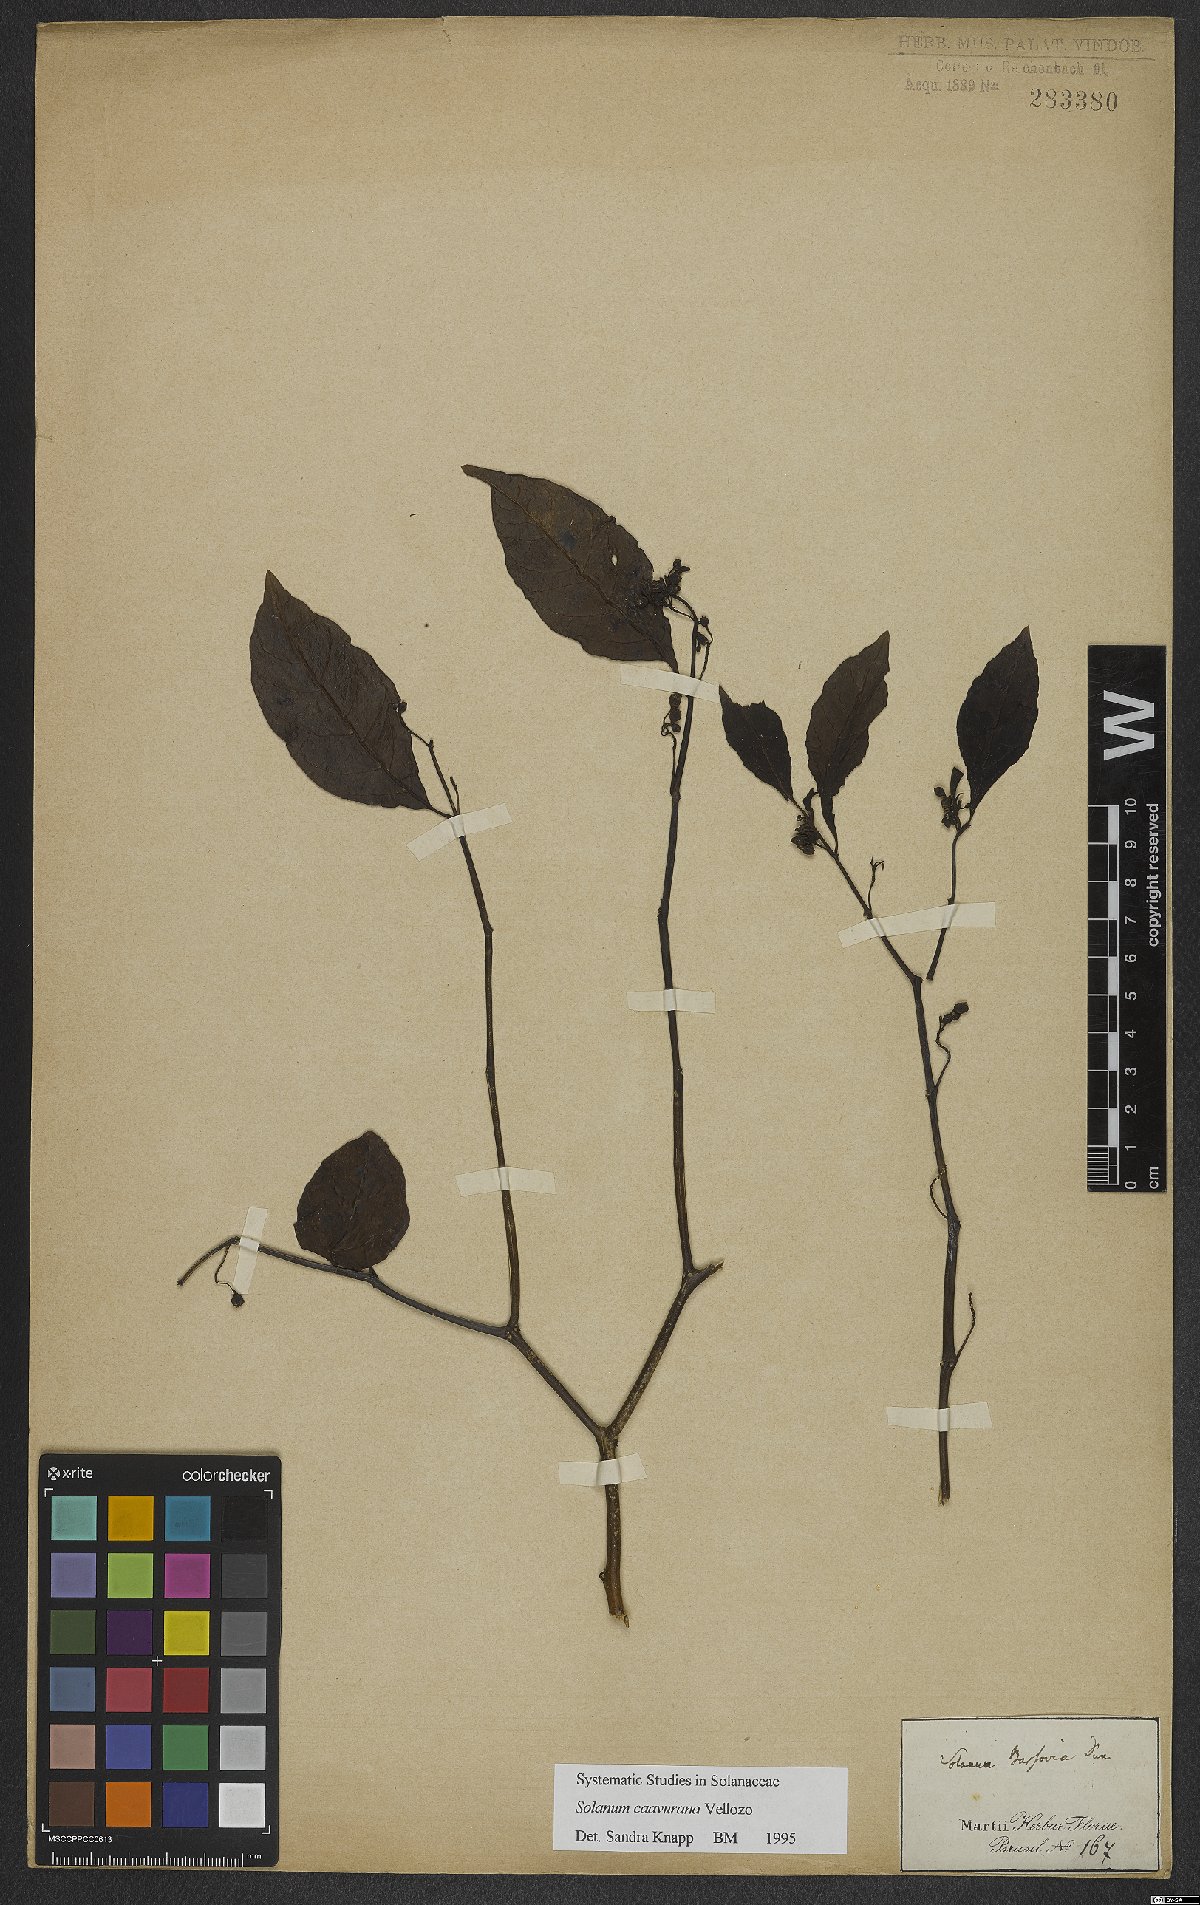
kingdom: Plantae
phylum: Tracheophyta
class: Magnoliopsida
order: Solanales
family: Solanaceae
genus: Solanum
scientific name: Solanum caavurana
